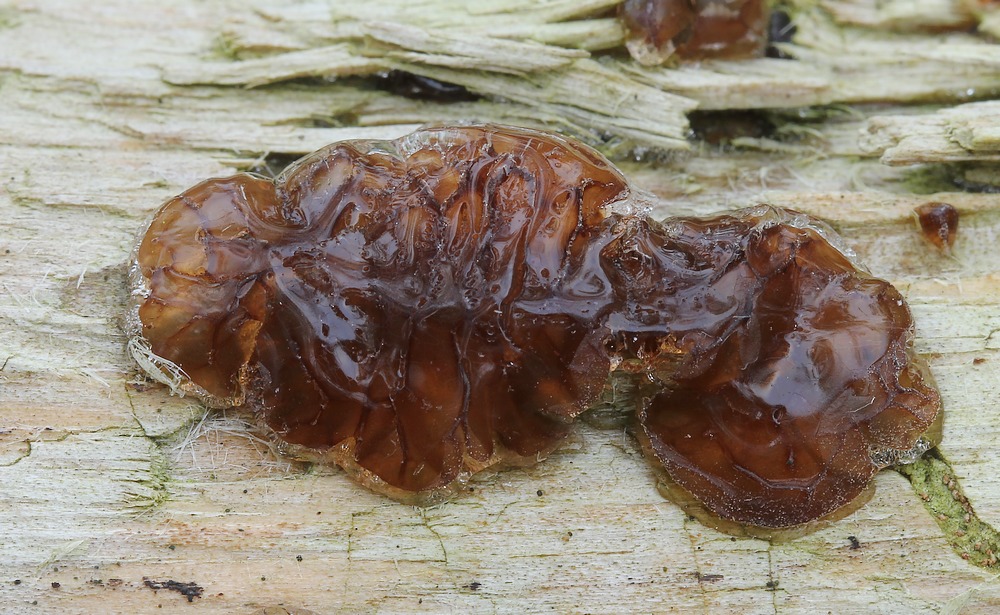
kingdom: Fungi
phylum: Basidiomycota
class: Agaricomycetes
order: Auriculariales
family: Auriculariaceae
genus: Exidia
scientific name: Exidia saccharina
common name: kandis-bævretop
